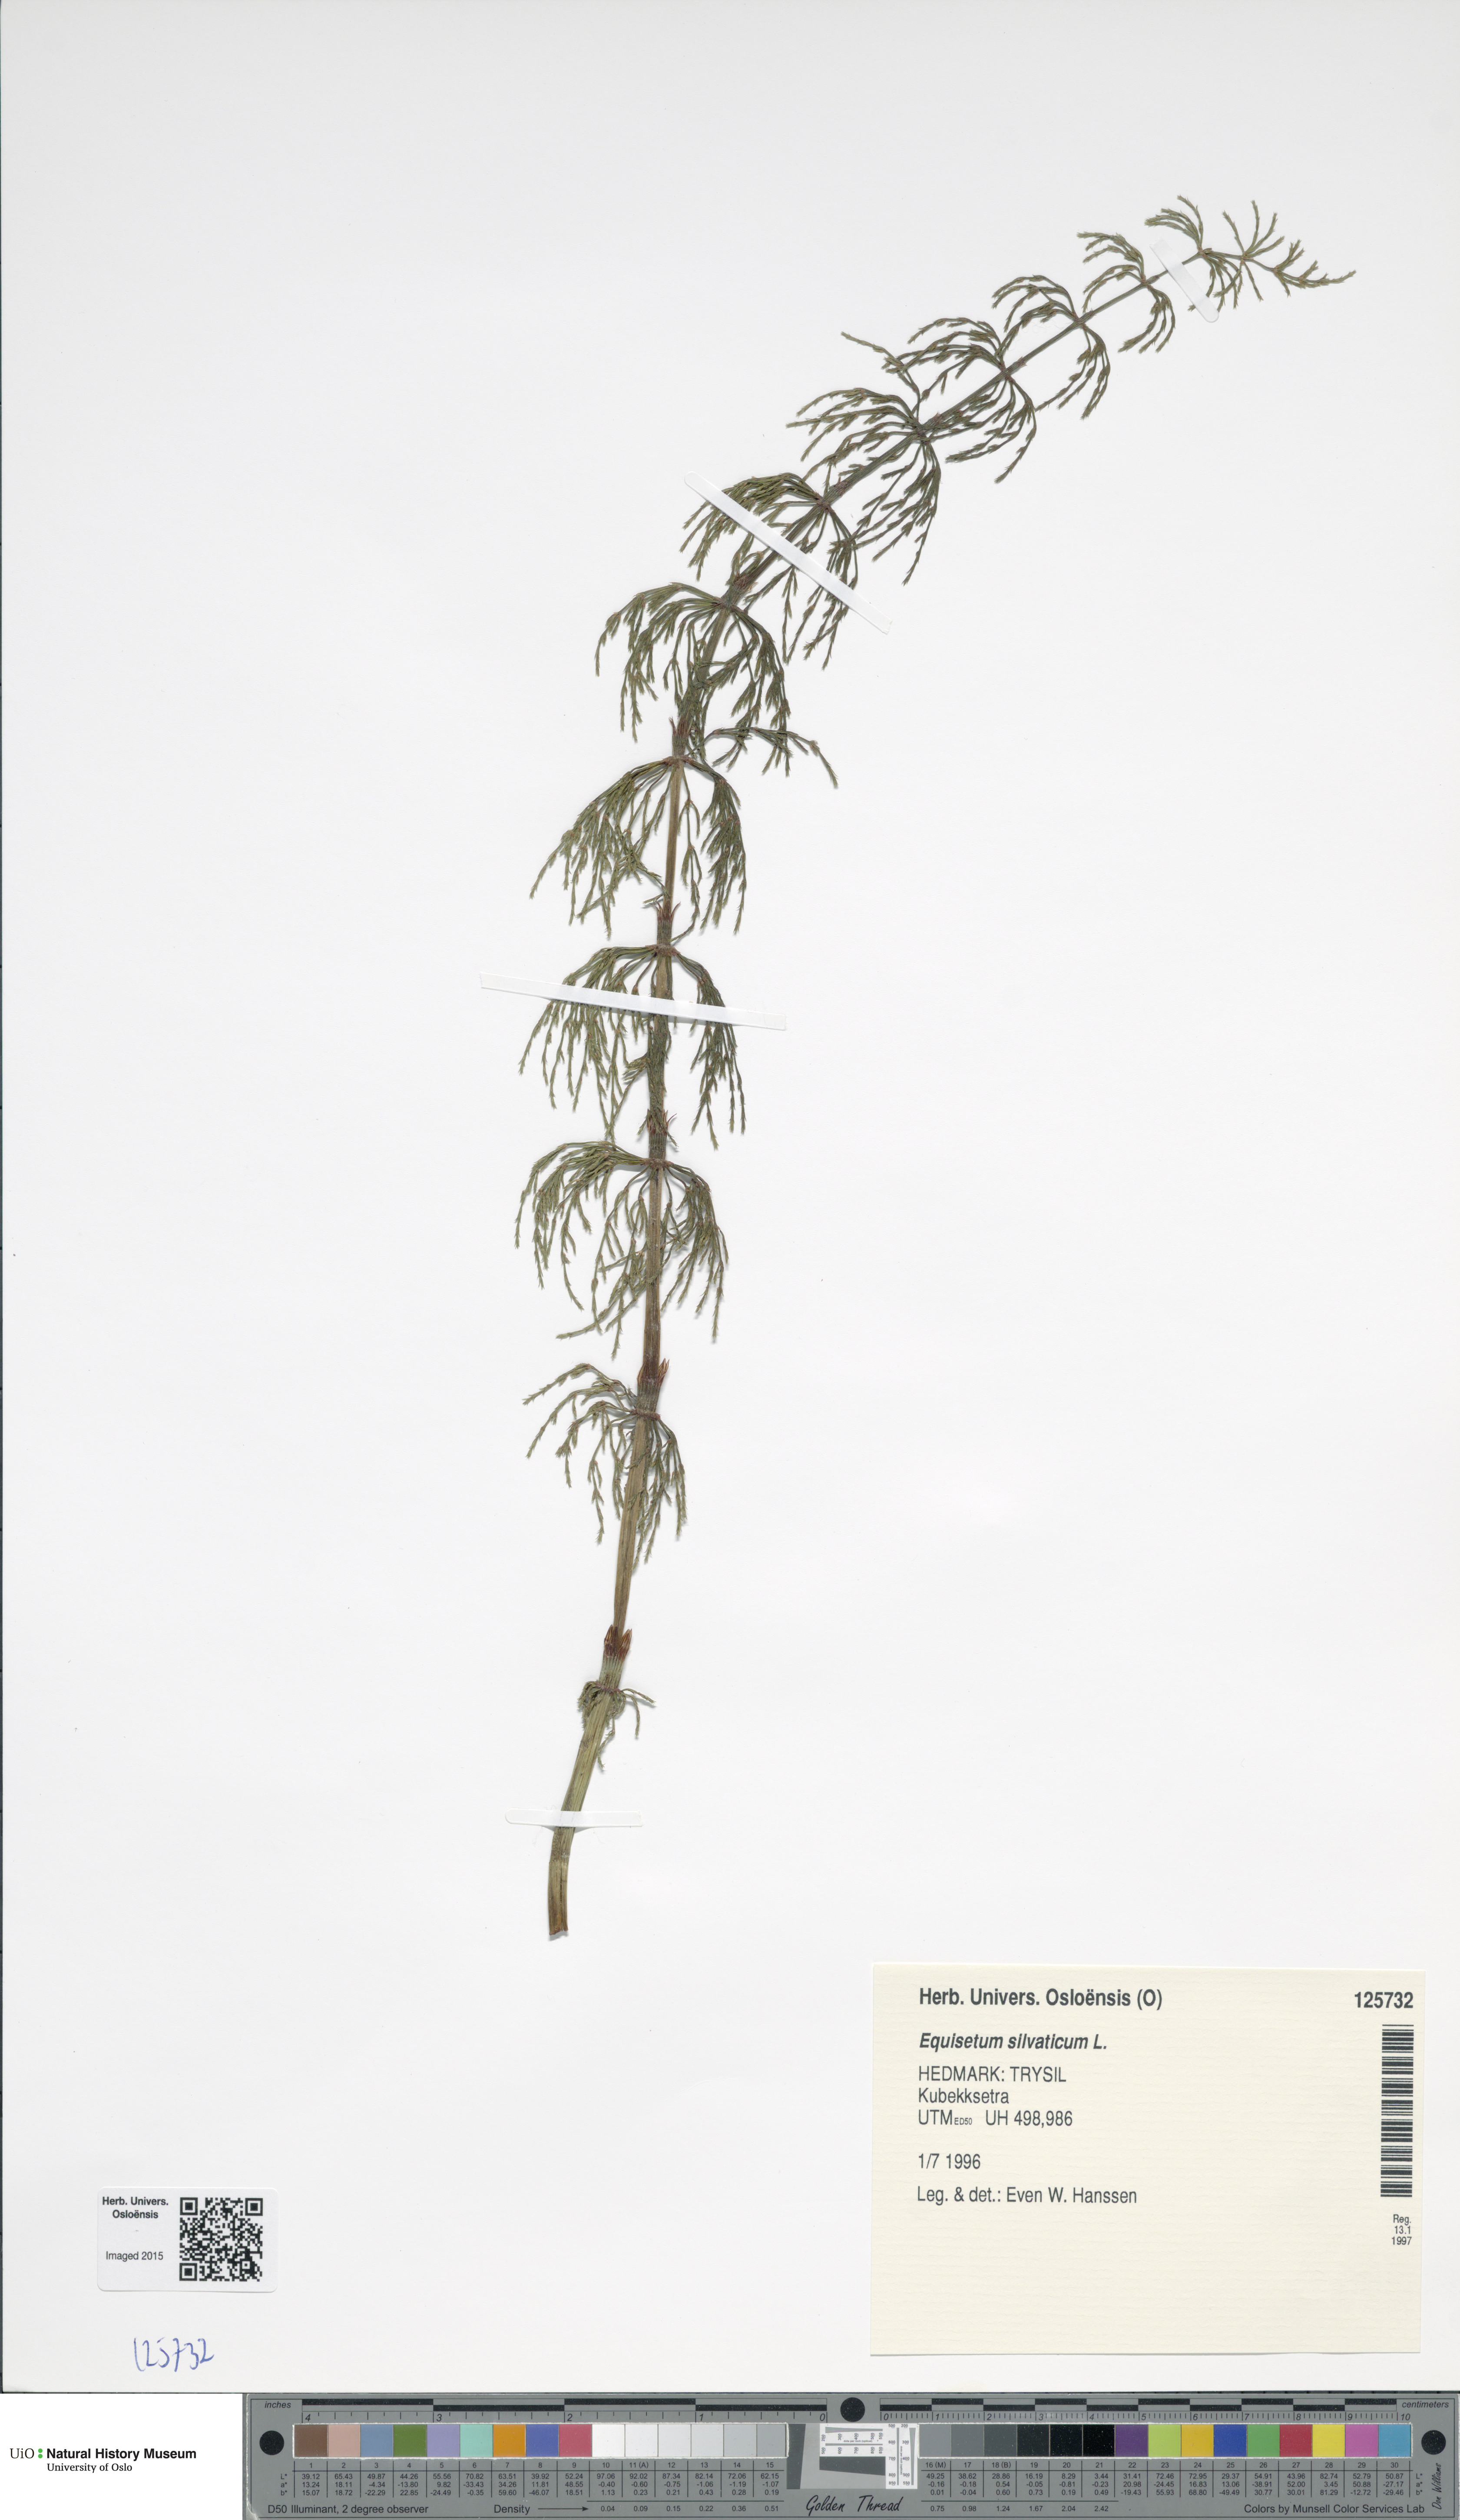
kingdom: Plantae
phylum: Tracheophyta
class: Polypodiopsida
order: Equisetales
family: Equisetaceae
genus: Equisetum
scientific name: Equisetum sylvaticum
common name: Wood horsetail
